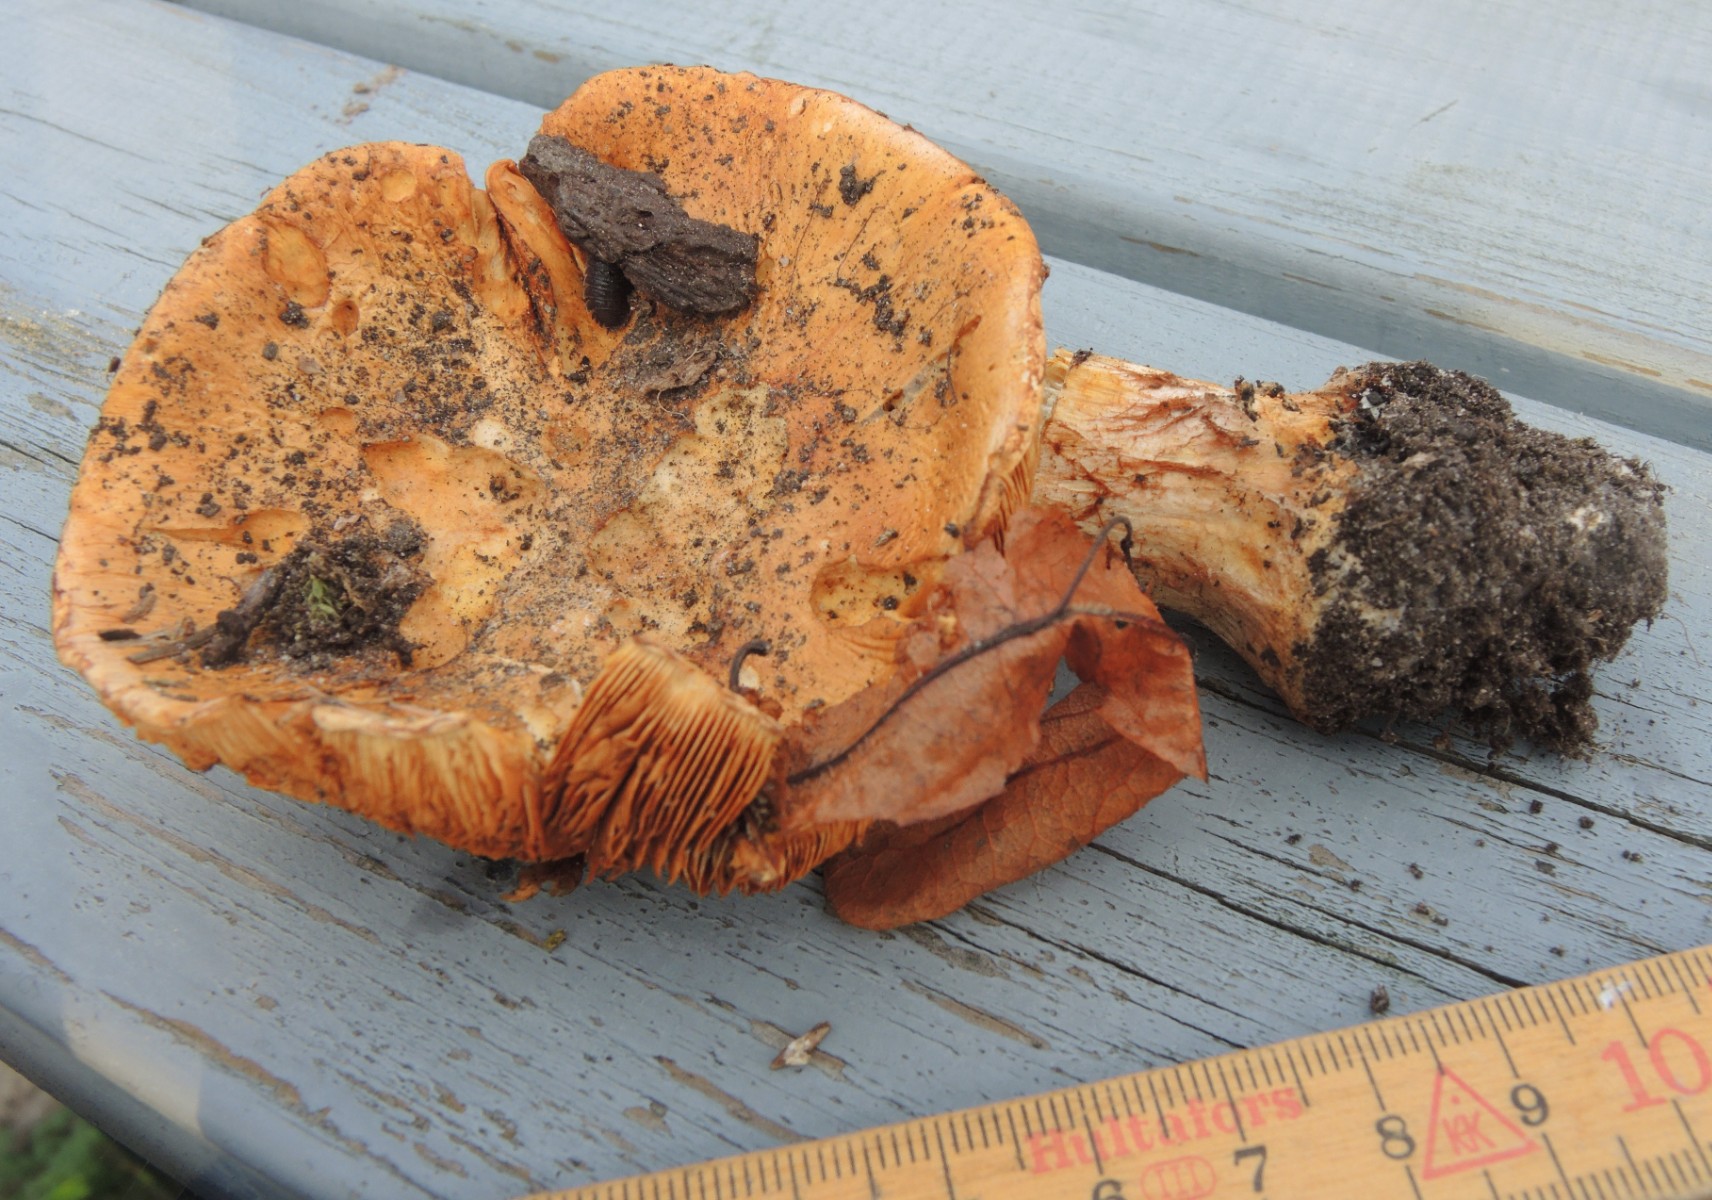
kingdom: Fungi
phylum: Basidiomycota
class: Agaricomycetes
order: Agaricales
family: Cortinariaceae
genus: Phlegmacium
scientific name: Phlegmacium caesiocortinatum
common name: rundsporet slørhat
